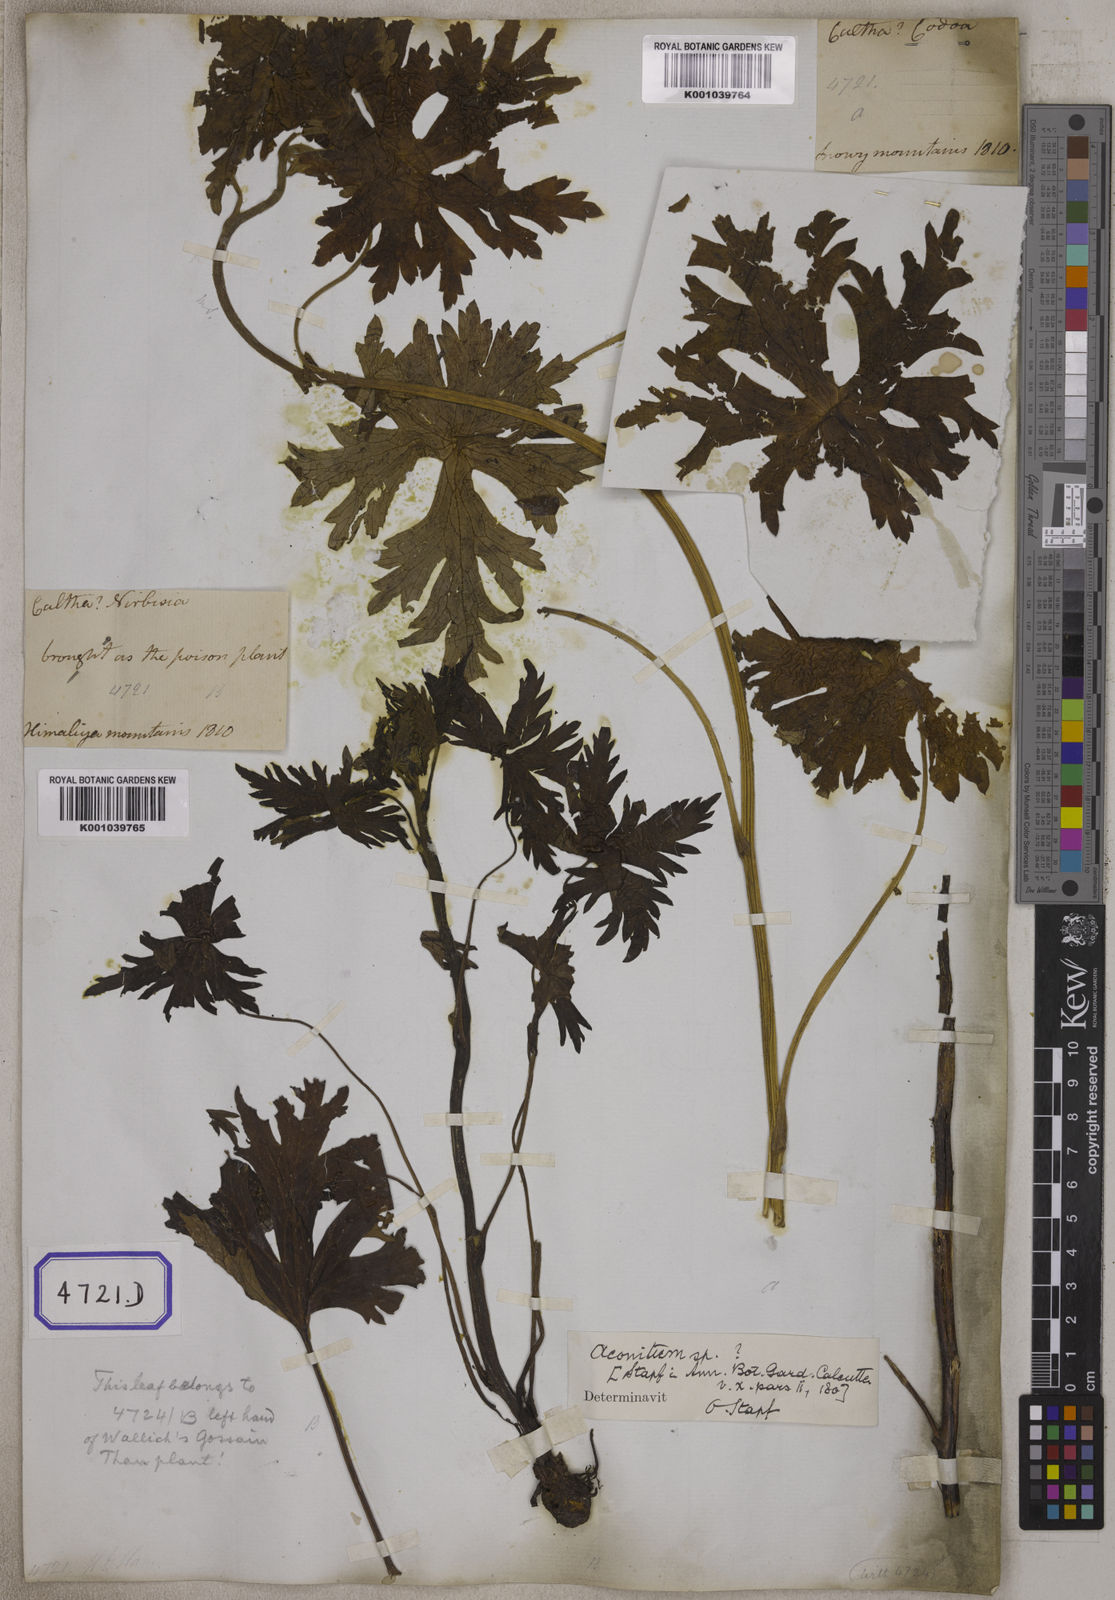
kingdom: Plantae
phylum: Tracheophyta
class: Magnoliopsida
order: Ranunculales
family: Ranunculaceae
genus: Aconitum
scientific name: Aconitum
